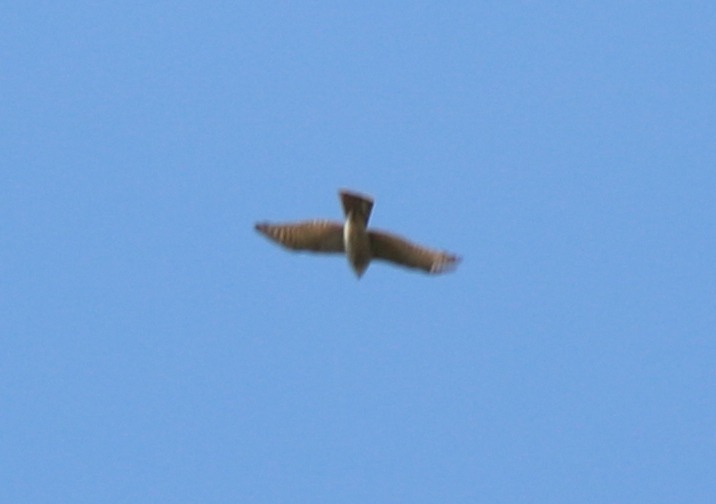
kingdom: Animalia
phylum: Chordata
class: Aves
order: Accipitriformes
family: Accipitridae
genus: Accipiter
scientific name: Accipiter nisus
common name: Spurvehøg
